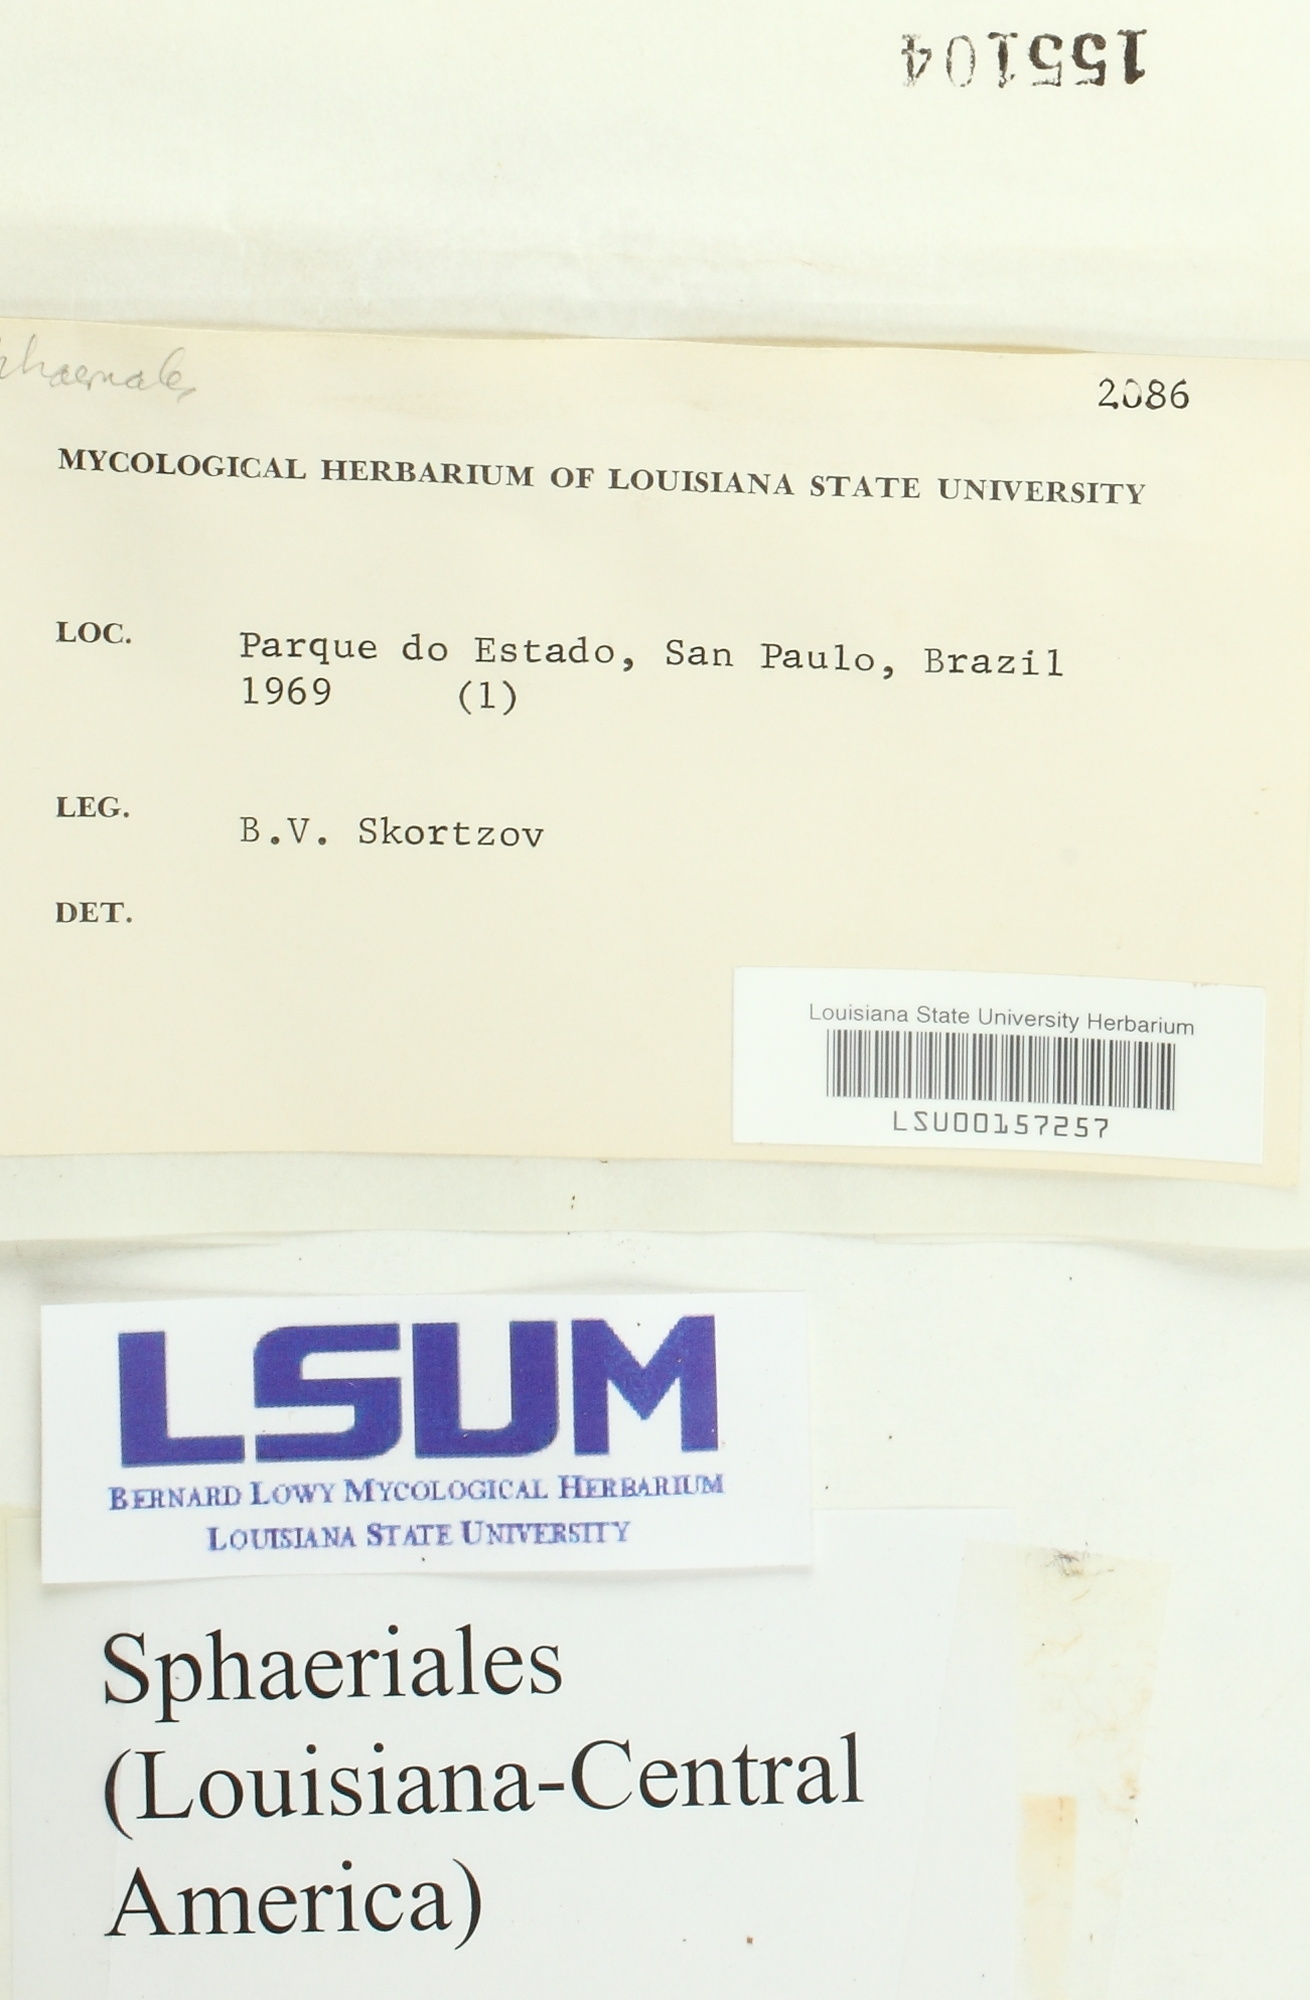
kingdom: Fungi
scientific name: Fungi
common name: Fungi
